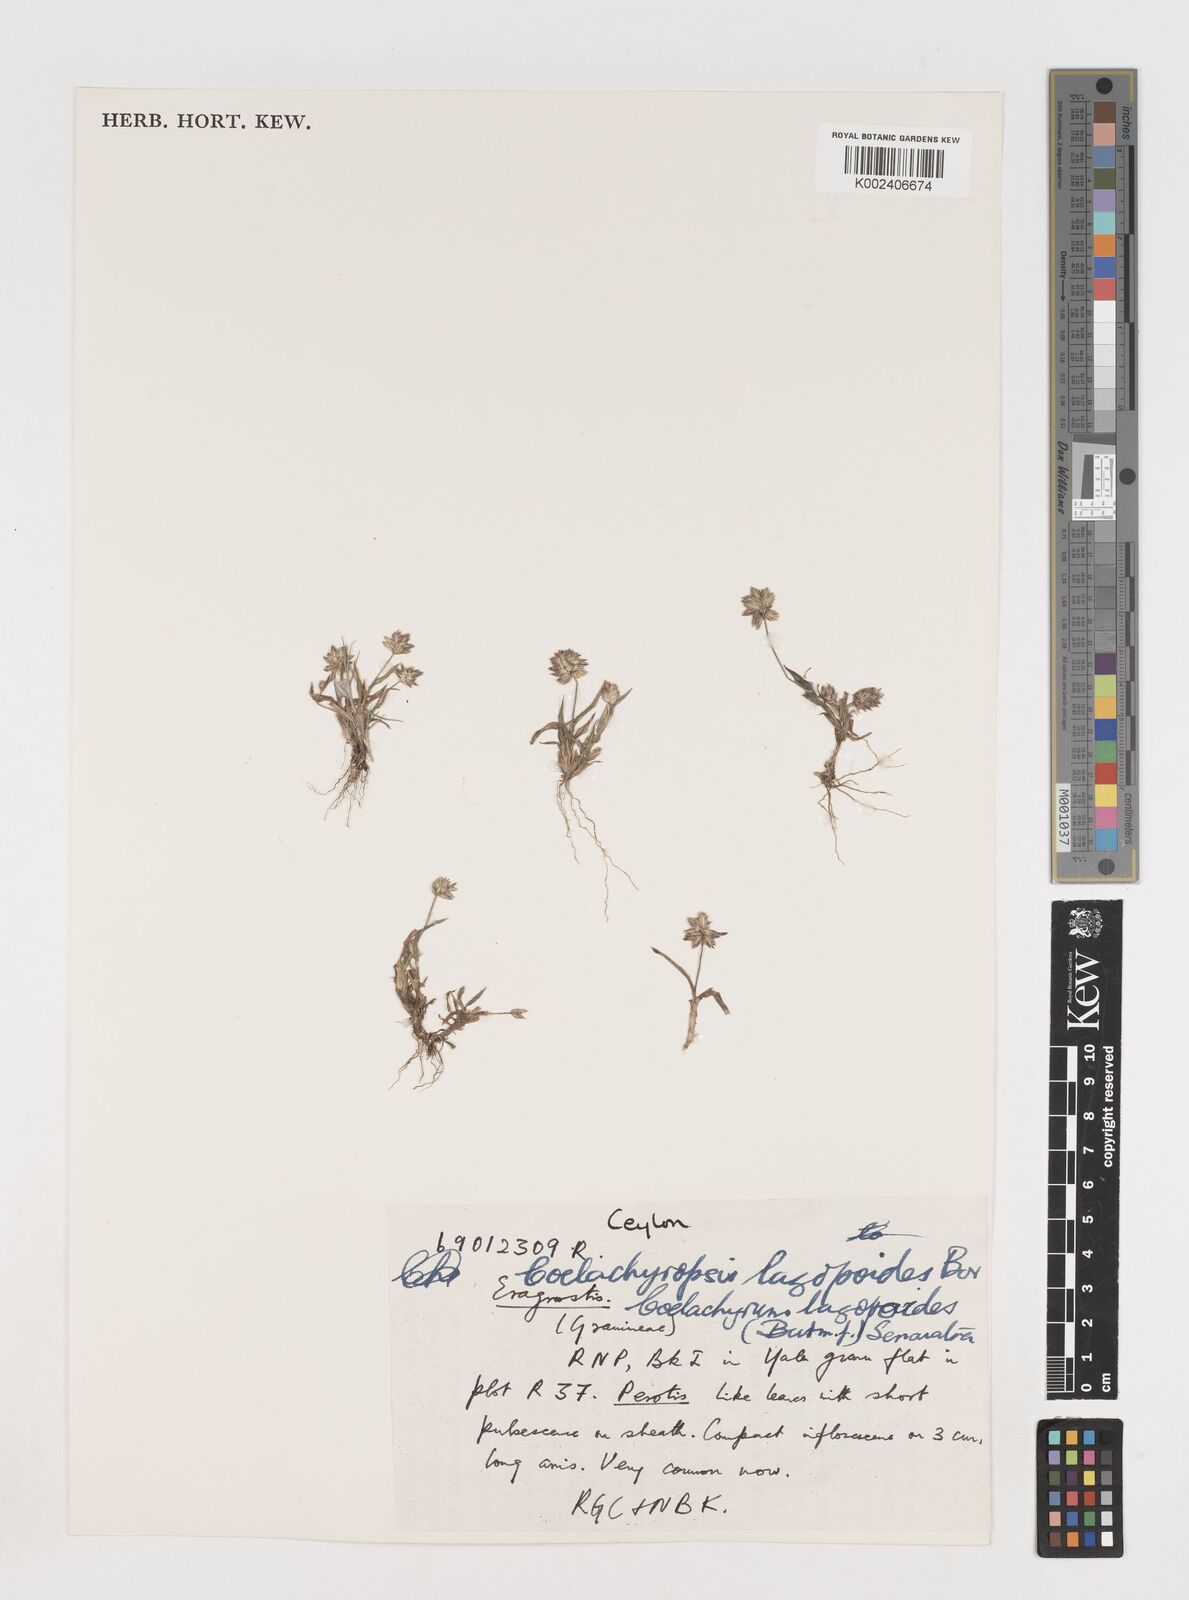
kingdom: Plantae
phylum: Tracheophyta
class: Liliopsida
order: Poales
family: Poaceae
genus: Coelachyrum
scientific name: Coelachyrum lagopoides
